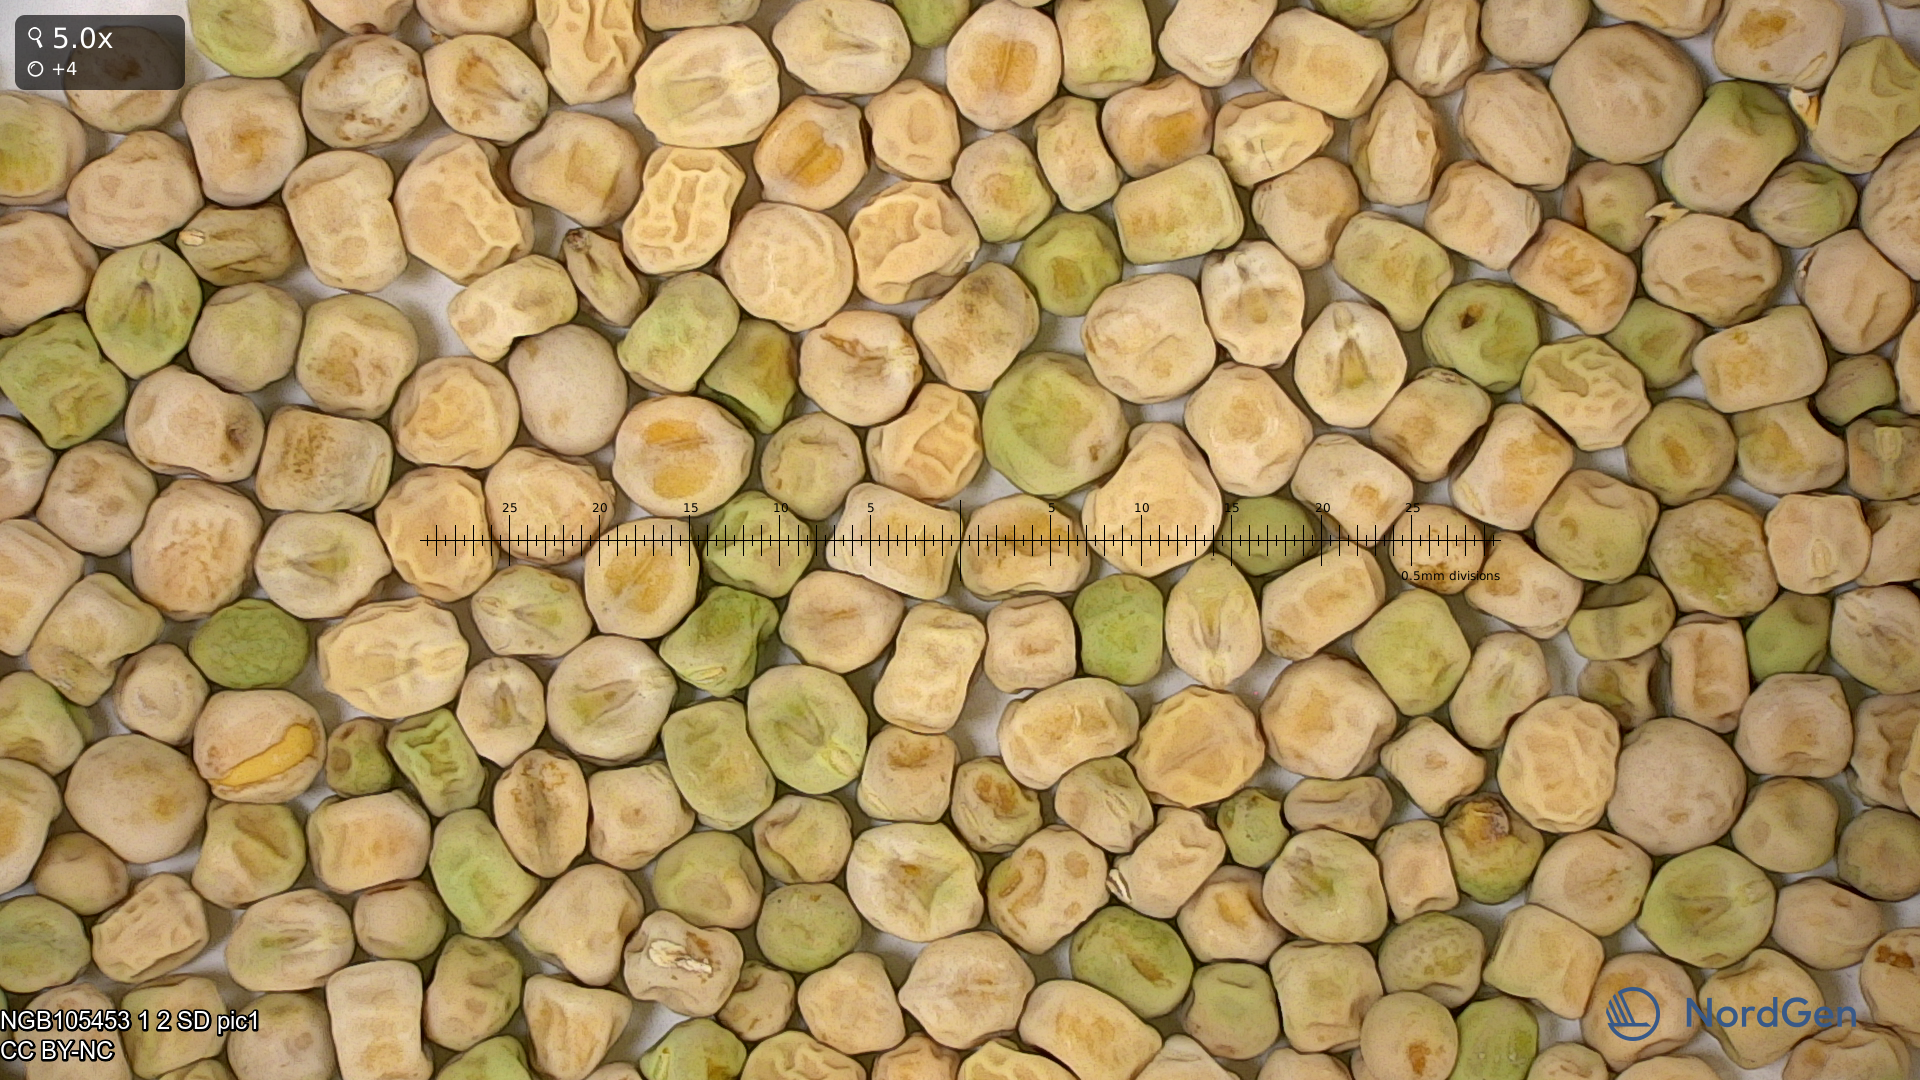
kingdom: Plantae
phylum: Tracheophyta
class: Magnoliopsida
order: Fabales
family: Fabaceae
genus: Lathyrus
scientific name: Lathyrus oleraceus
